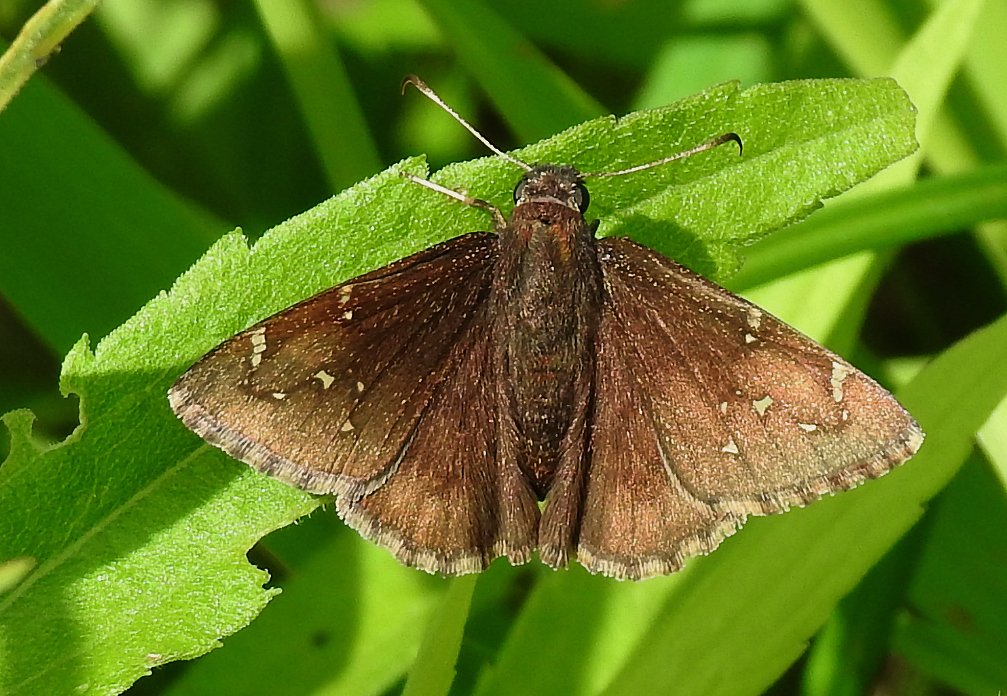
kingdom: Animalia
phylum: Arthropoda
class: Insecta
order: Lepidoptera
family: Hesperiidae
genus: Autochton
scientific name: Autochton
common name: Northern Cloudywing
